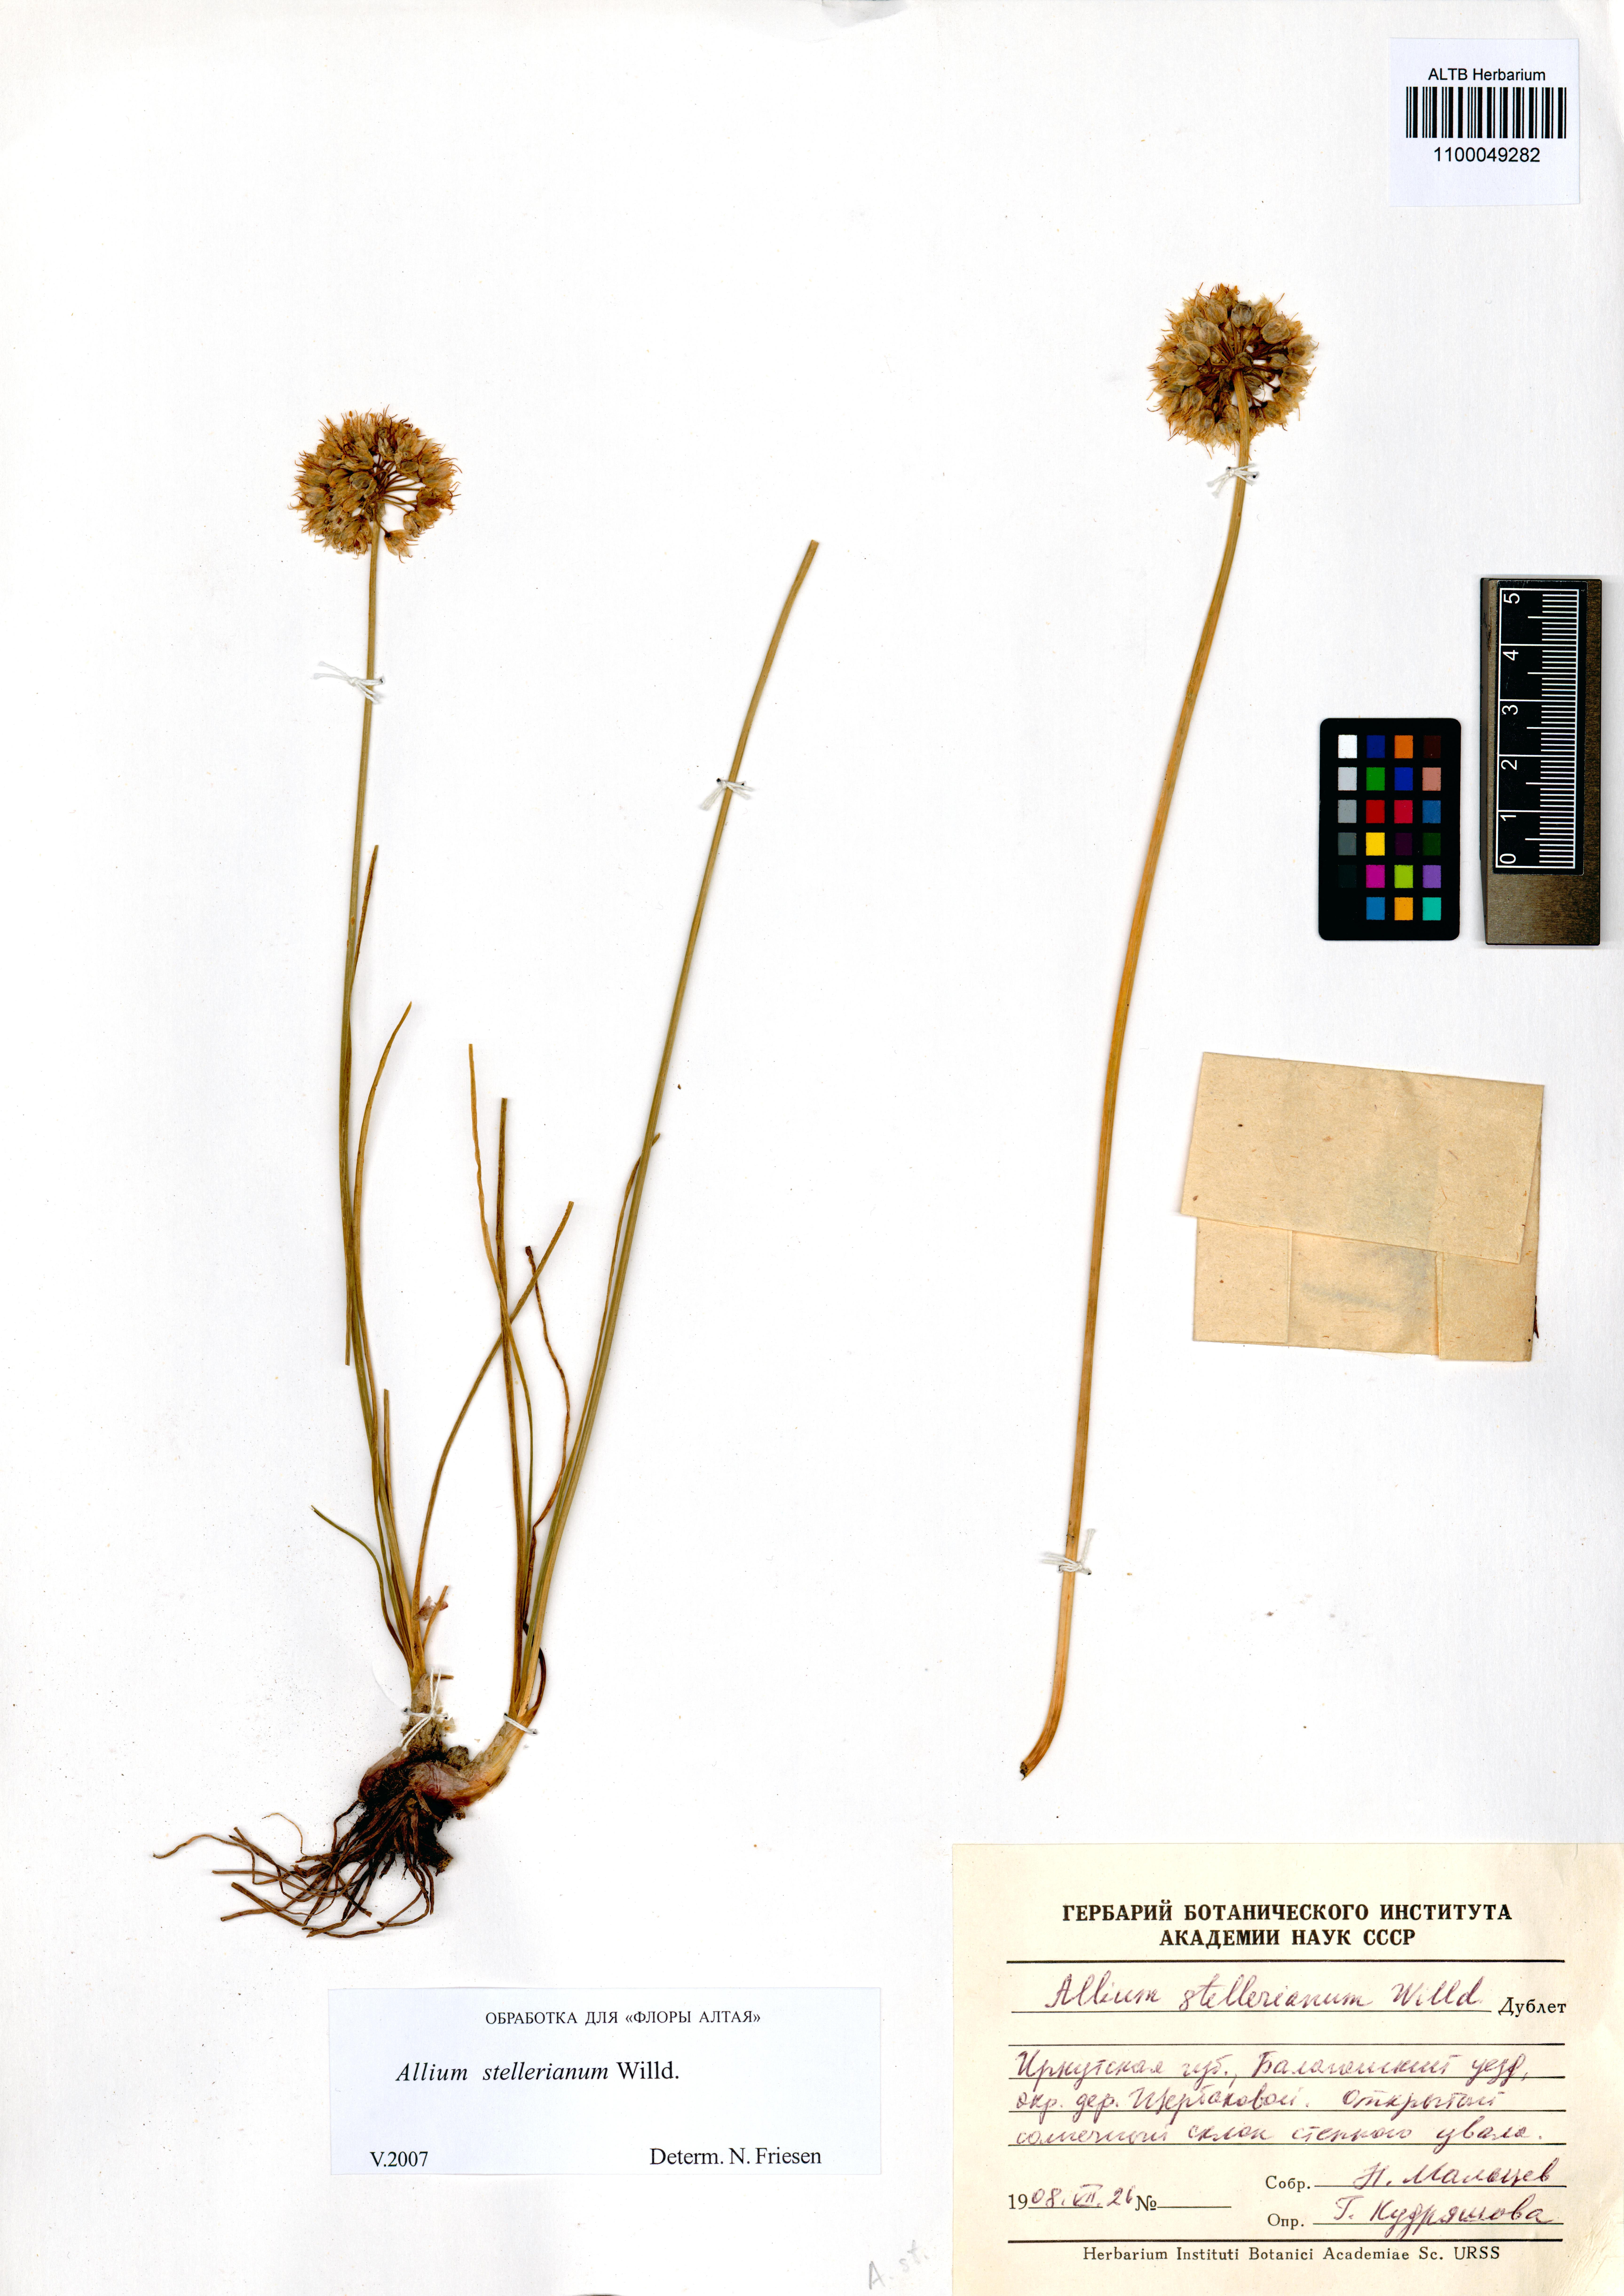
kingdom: Plantae
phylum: Tracheophyta
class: Liliopsida
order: Asparagales
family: Amaryllidaceae
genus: Allium
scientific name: Allium stellerianum
